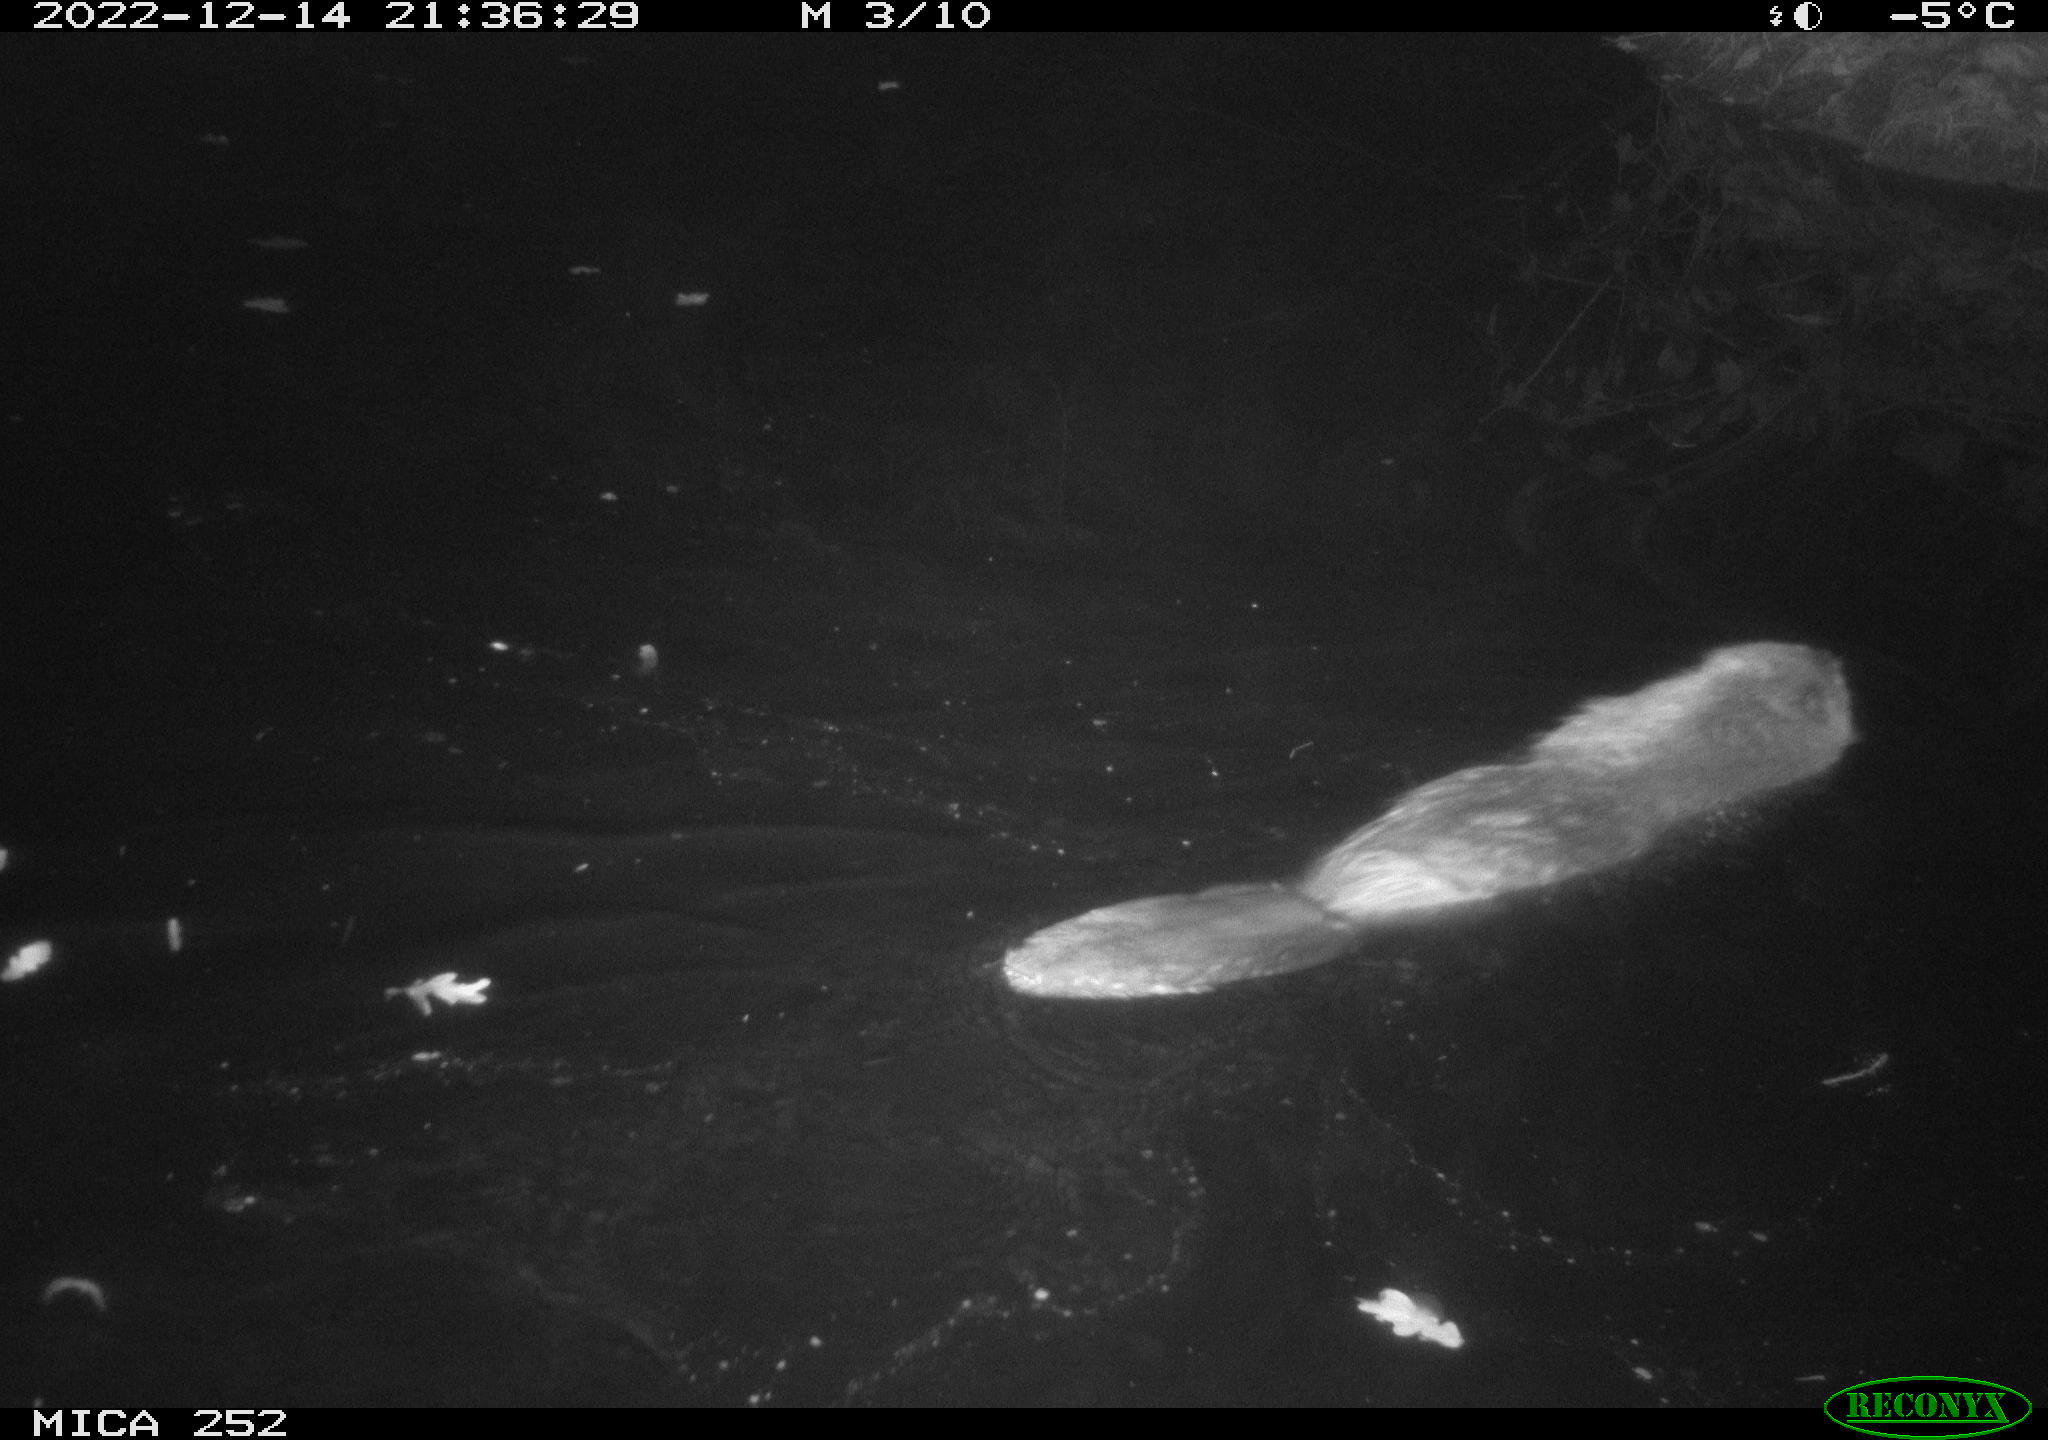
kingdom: Animalia
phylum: Chordata
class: Mammalia
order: Rodentia
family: Castoridae
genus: Castor
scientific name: Castor fiber
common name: Eurasian beaver
